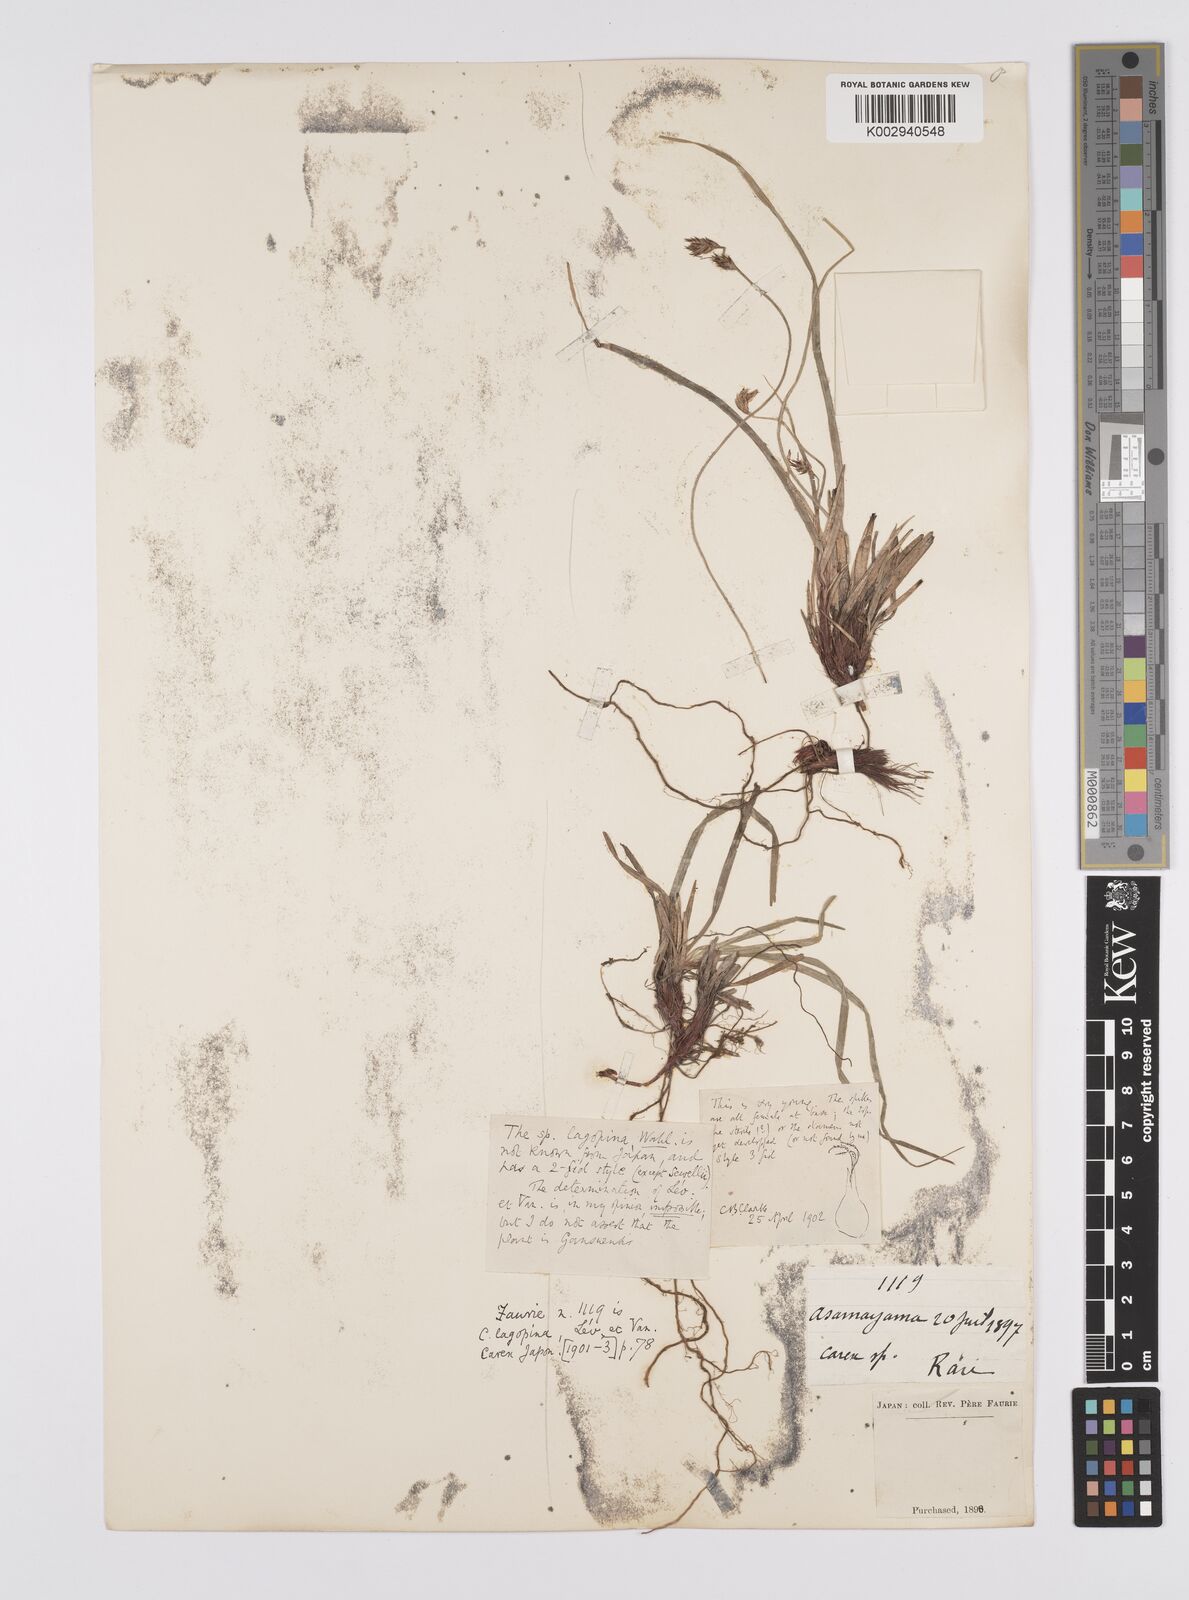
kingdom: Plantae
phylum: Tracheophyta
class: Liliopsida
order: Poales
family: Cyperaceae
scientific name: Cyperaceae
